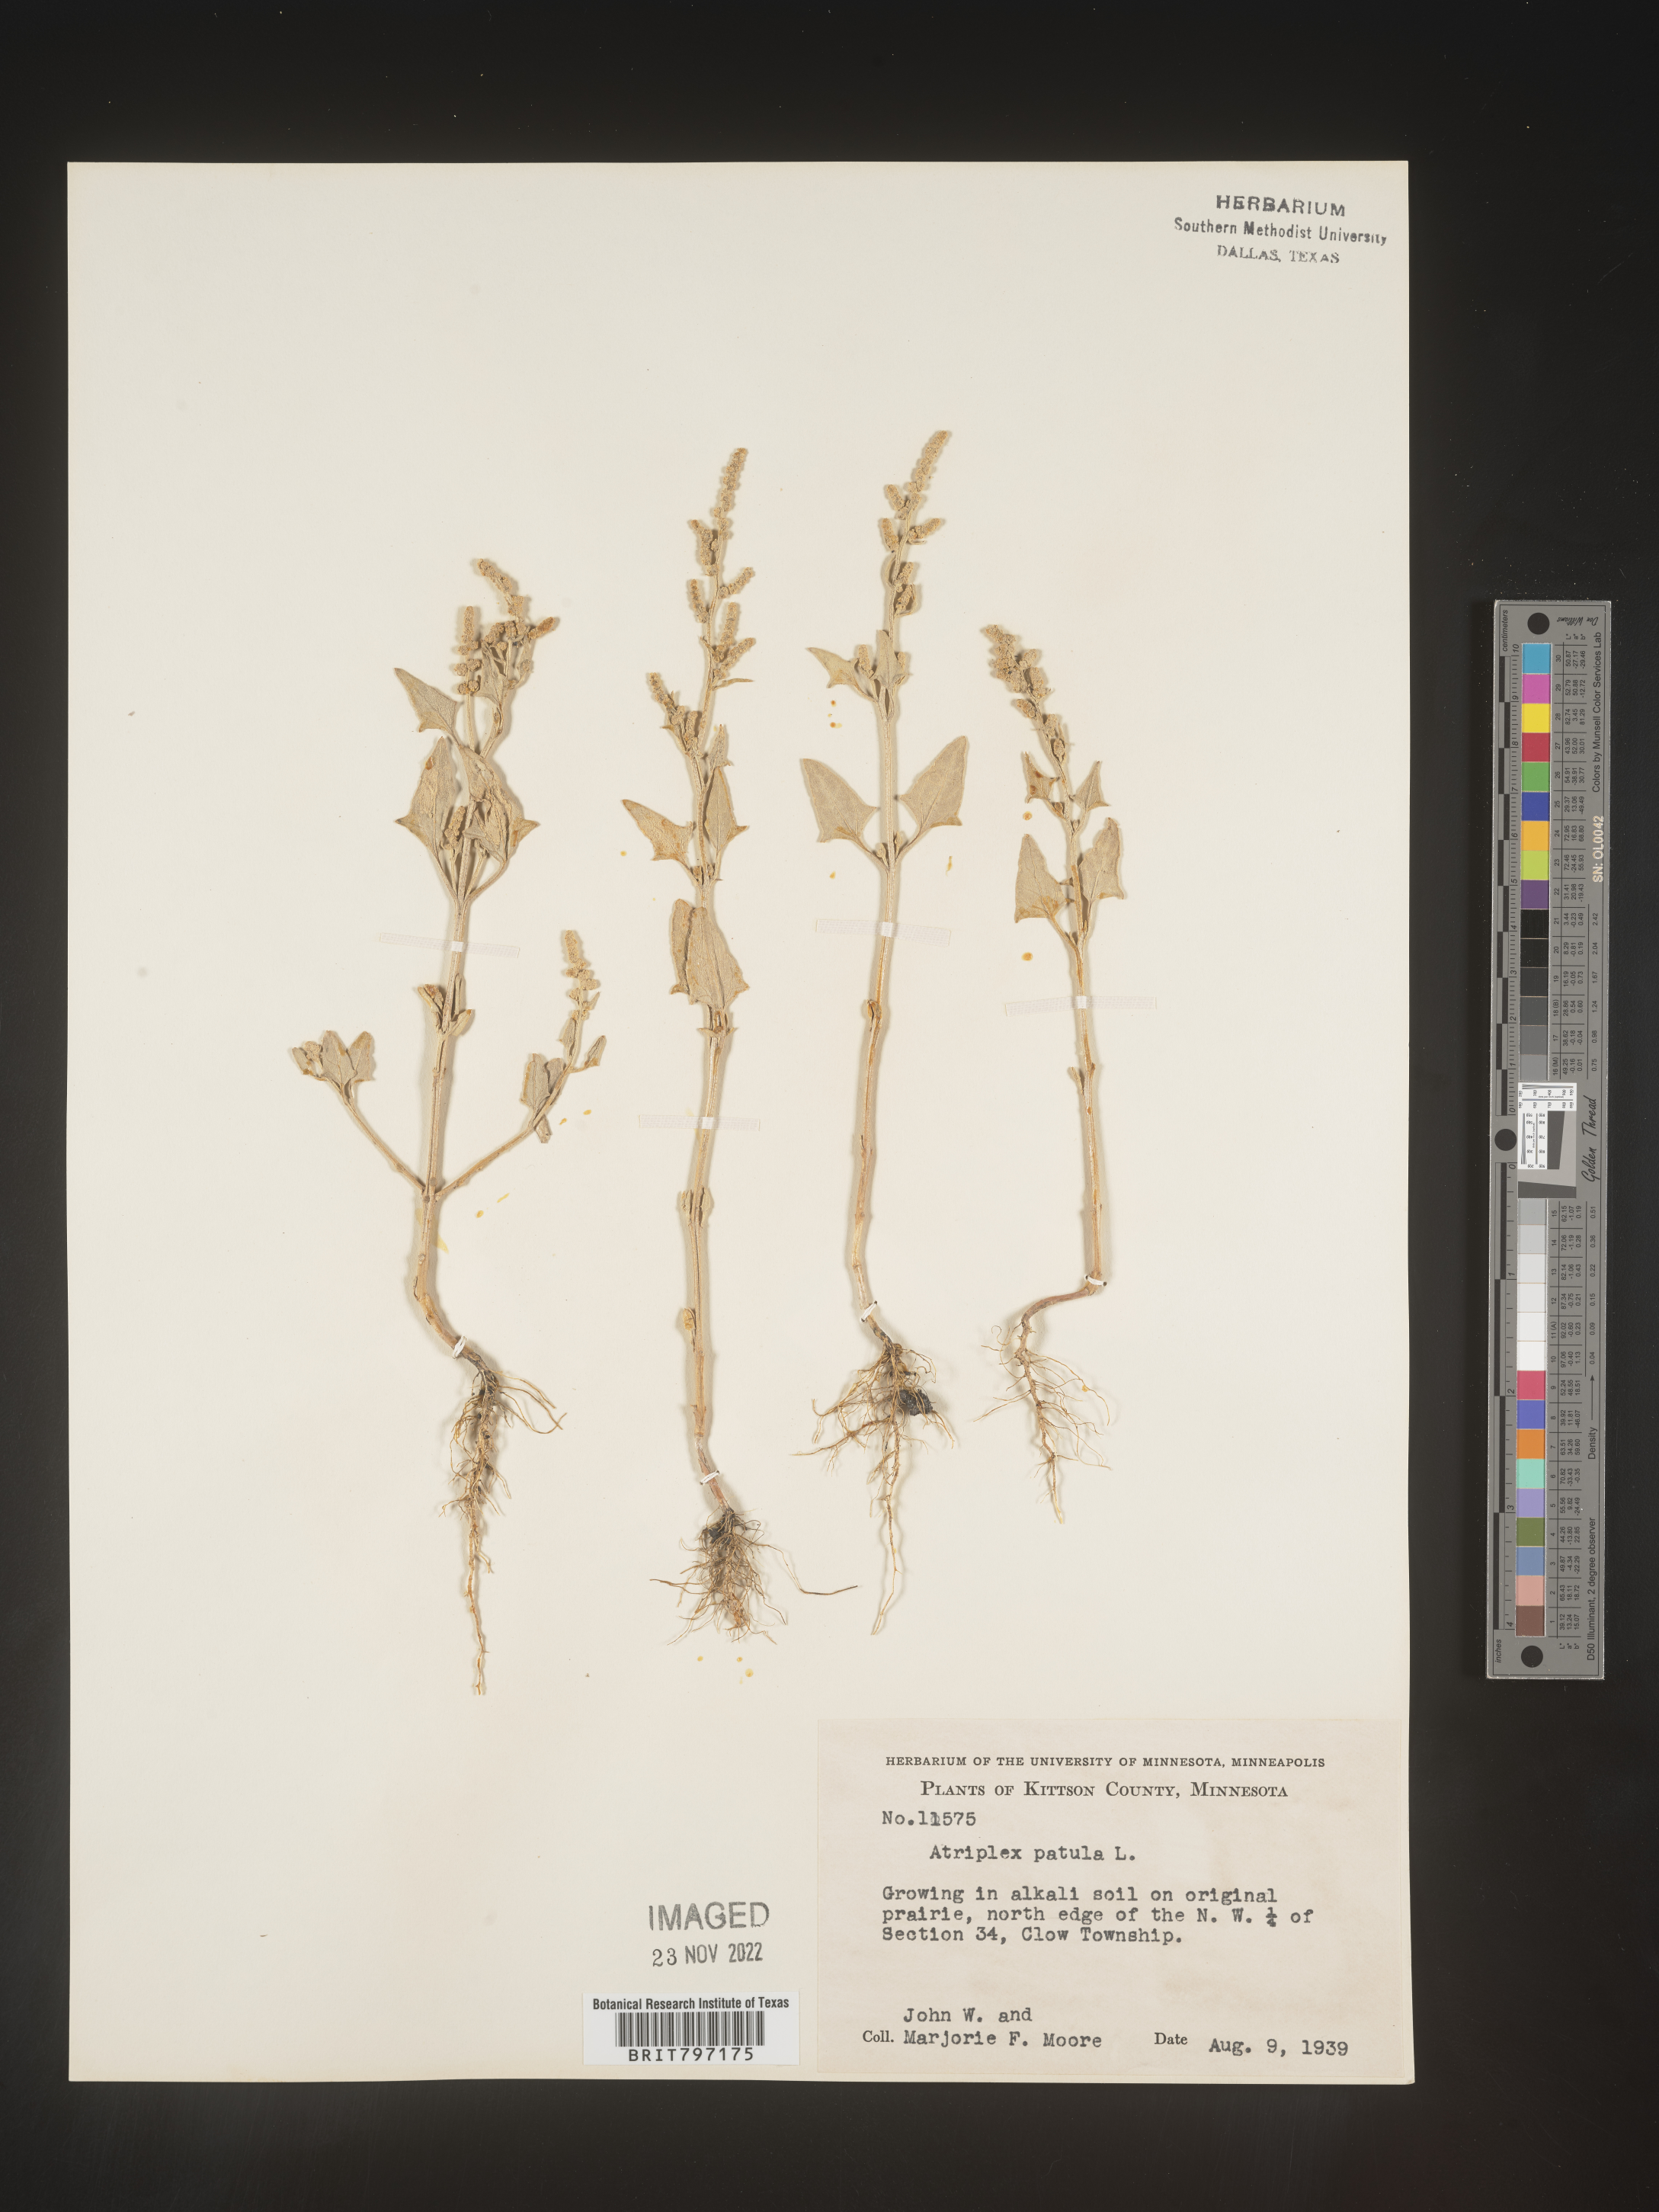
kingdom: Plantae
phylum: Tracheophyta
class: Magnoliopsida
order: Caryophyllales
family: Amaranthaceae
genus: Atriplex
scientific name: Atriplex prostrata
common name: Spear-leaved orache
